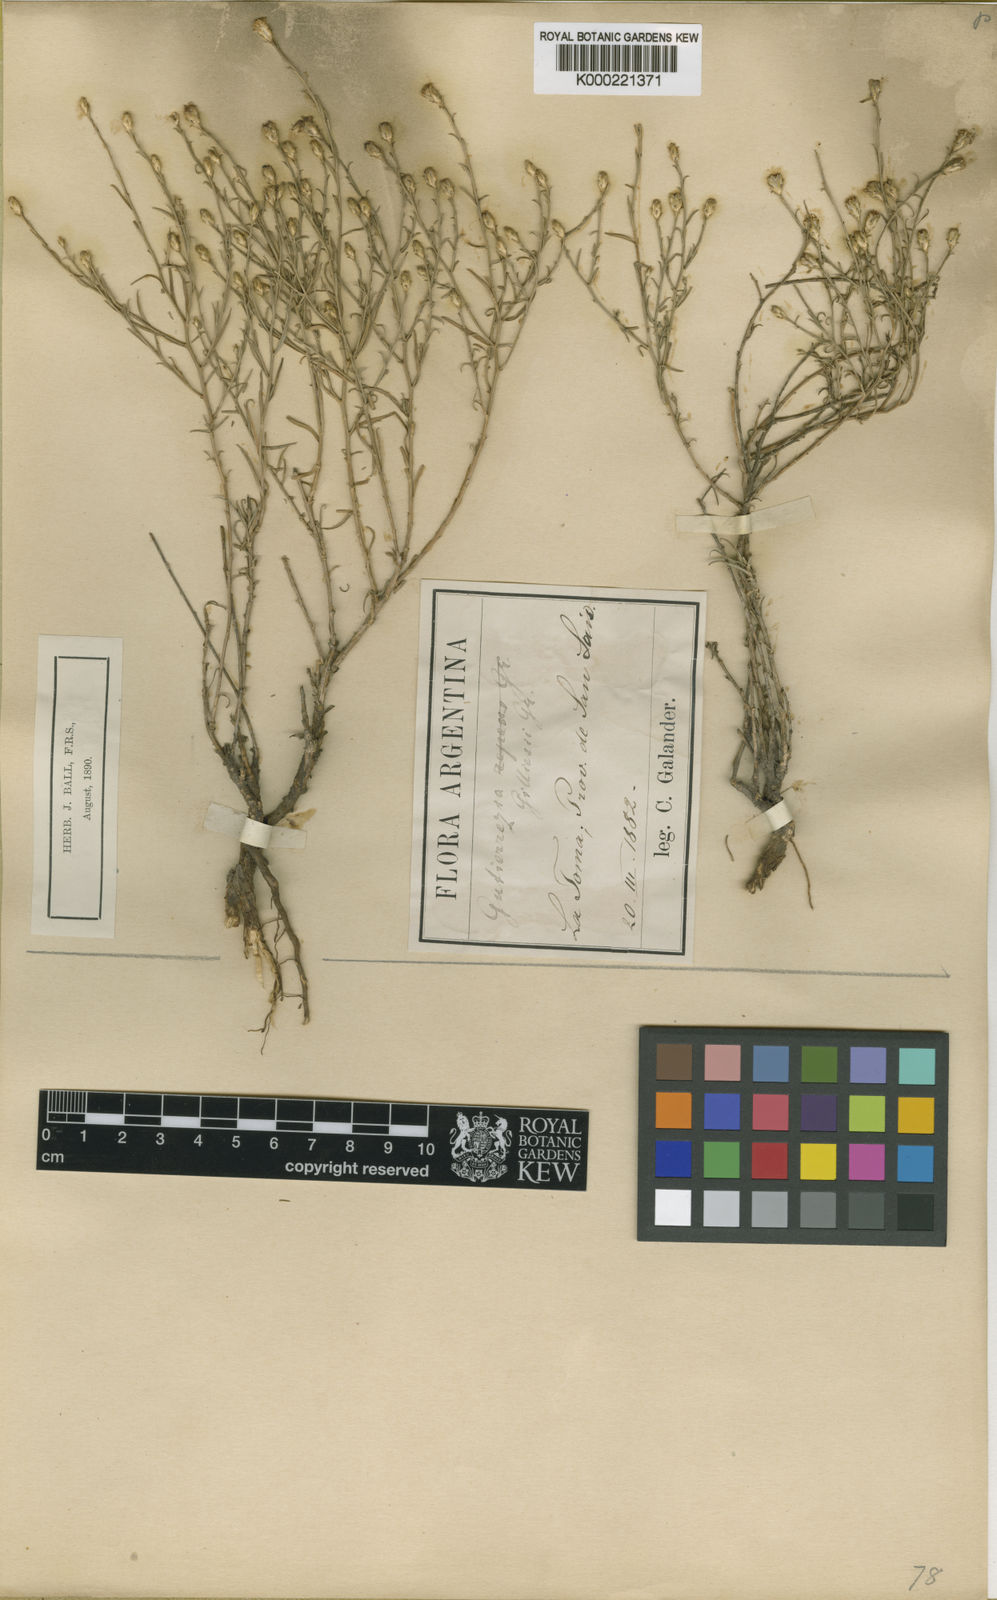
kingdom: Plantae
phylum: Tracheophyta
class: Magnoliopsida
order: Asterales
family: Asteraceae
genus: Gutierrezia
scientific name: Gutierrezia gilliesii
